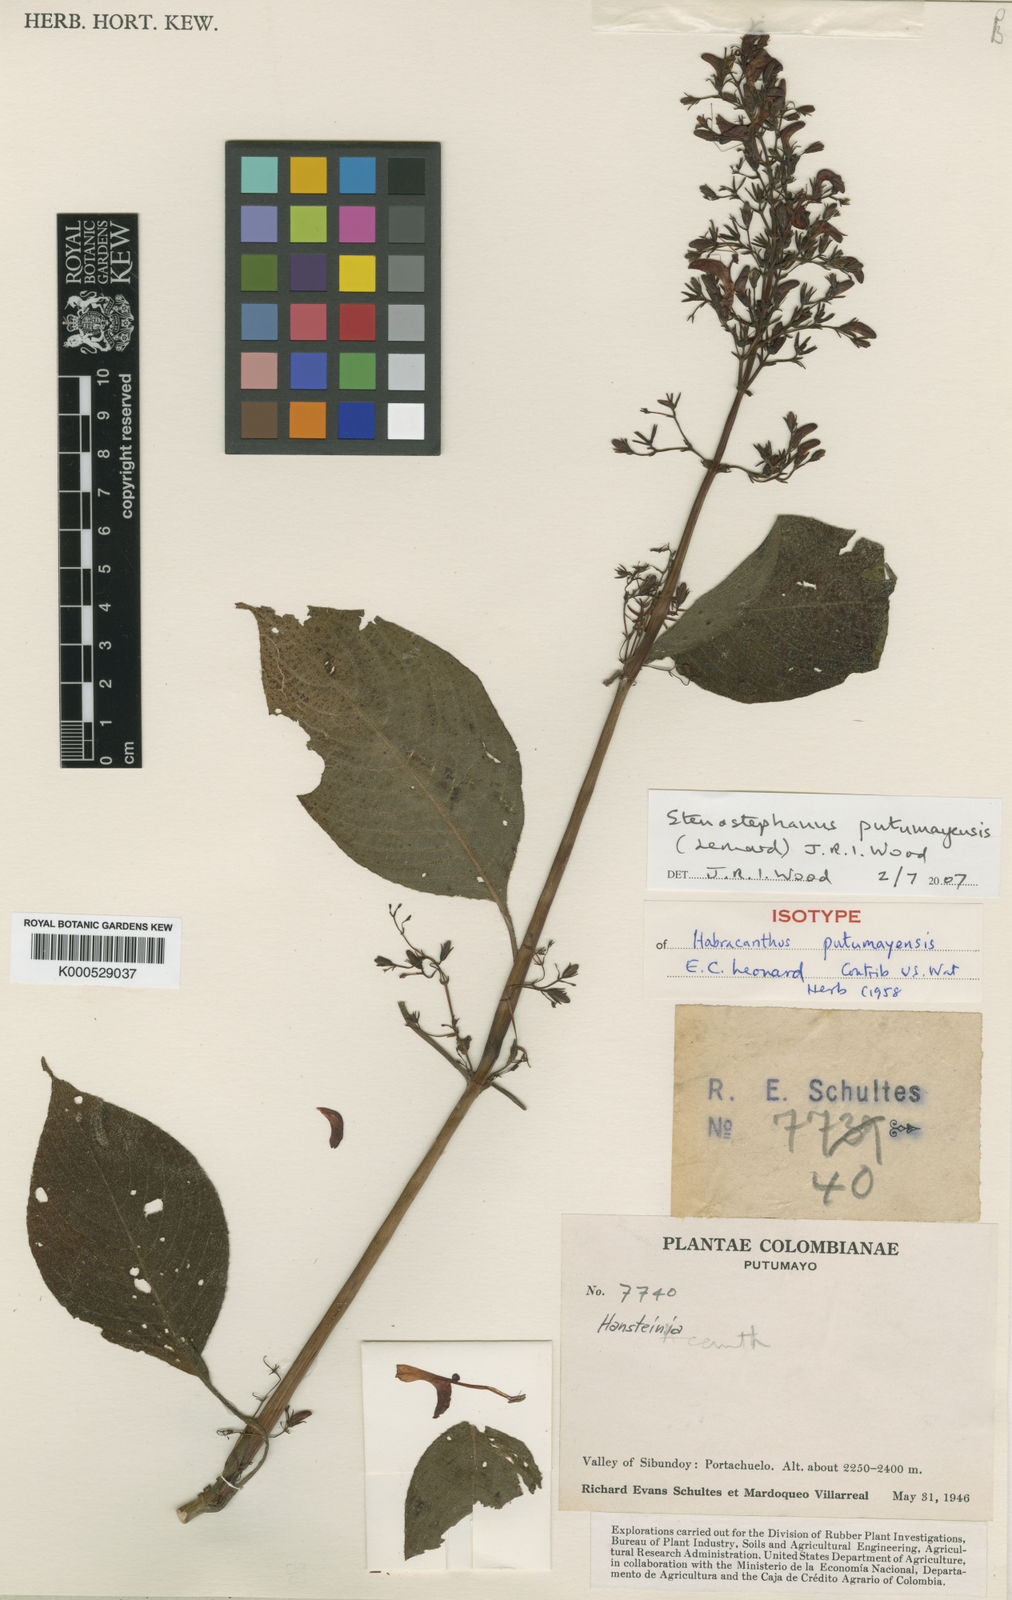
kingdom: Plantae
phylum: Tracheophyta
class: Magnoliopsida
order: Lamiales
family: Acanthaceae
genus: Stenostephanus
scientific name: Stenostephanus putumayensis
